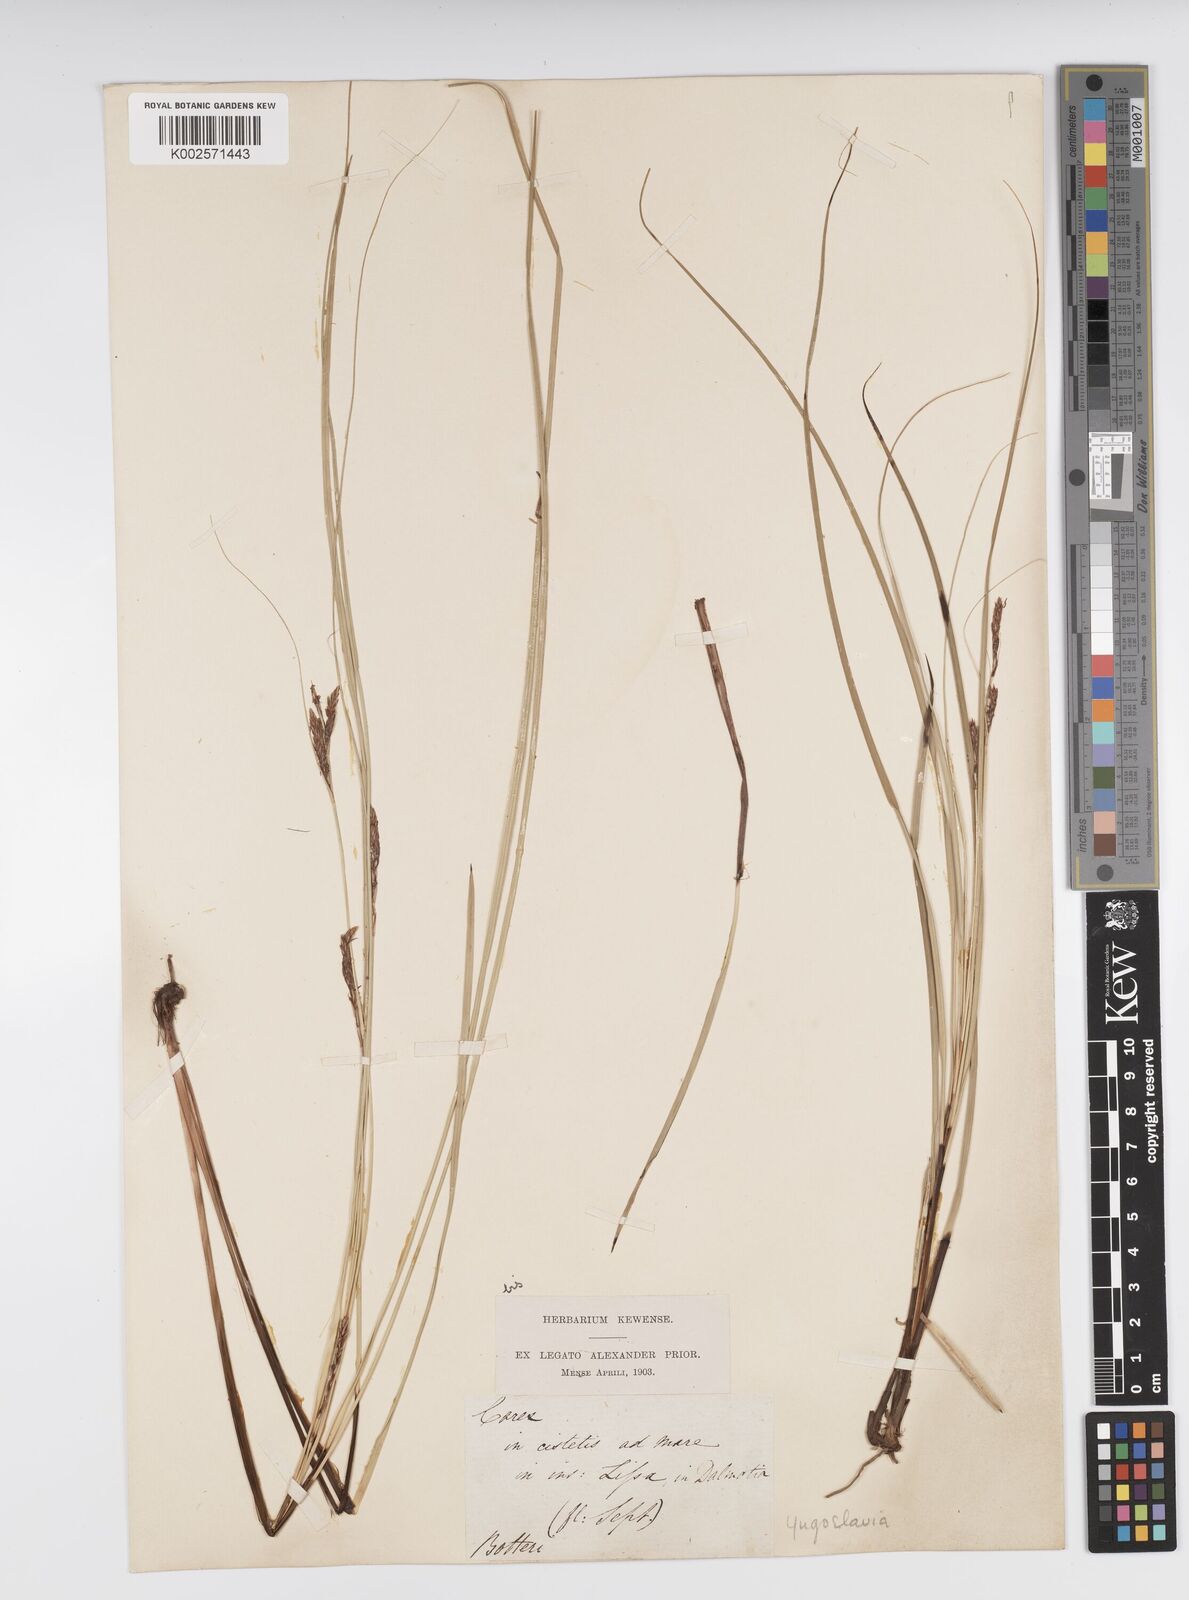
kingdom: Plantae
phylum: Tracheophyta
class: Liliopsida
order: Poales
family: Cyperaceae
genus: Carex
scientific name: Carex illegitima
